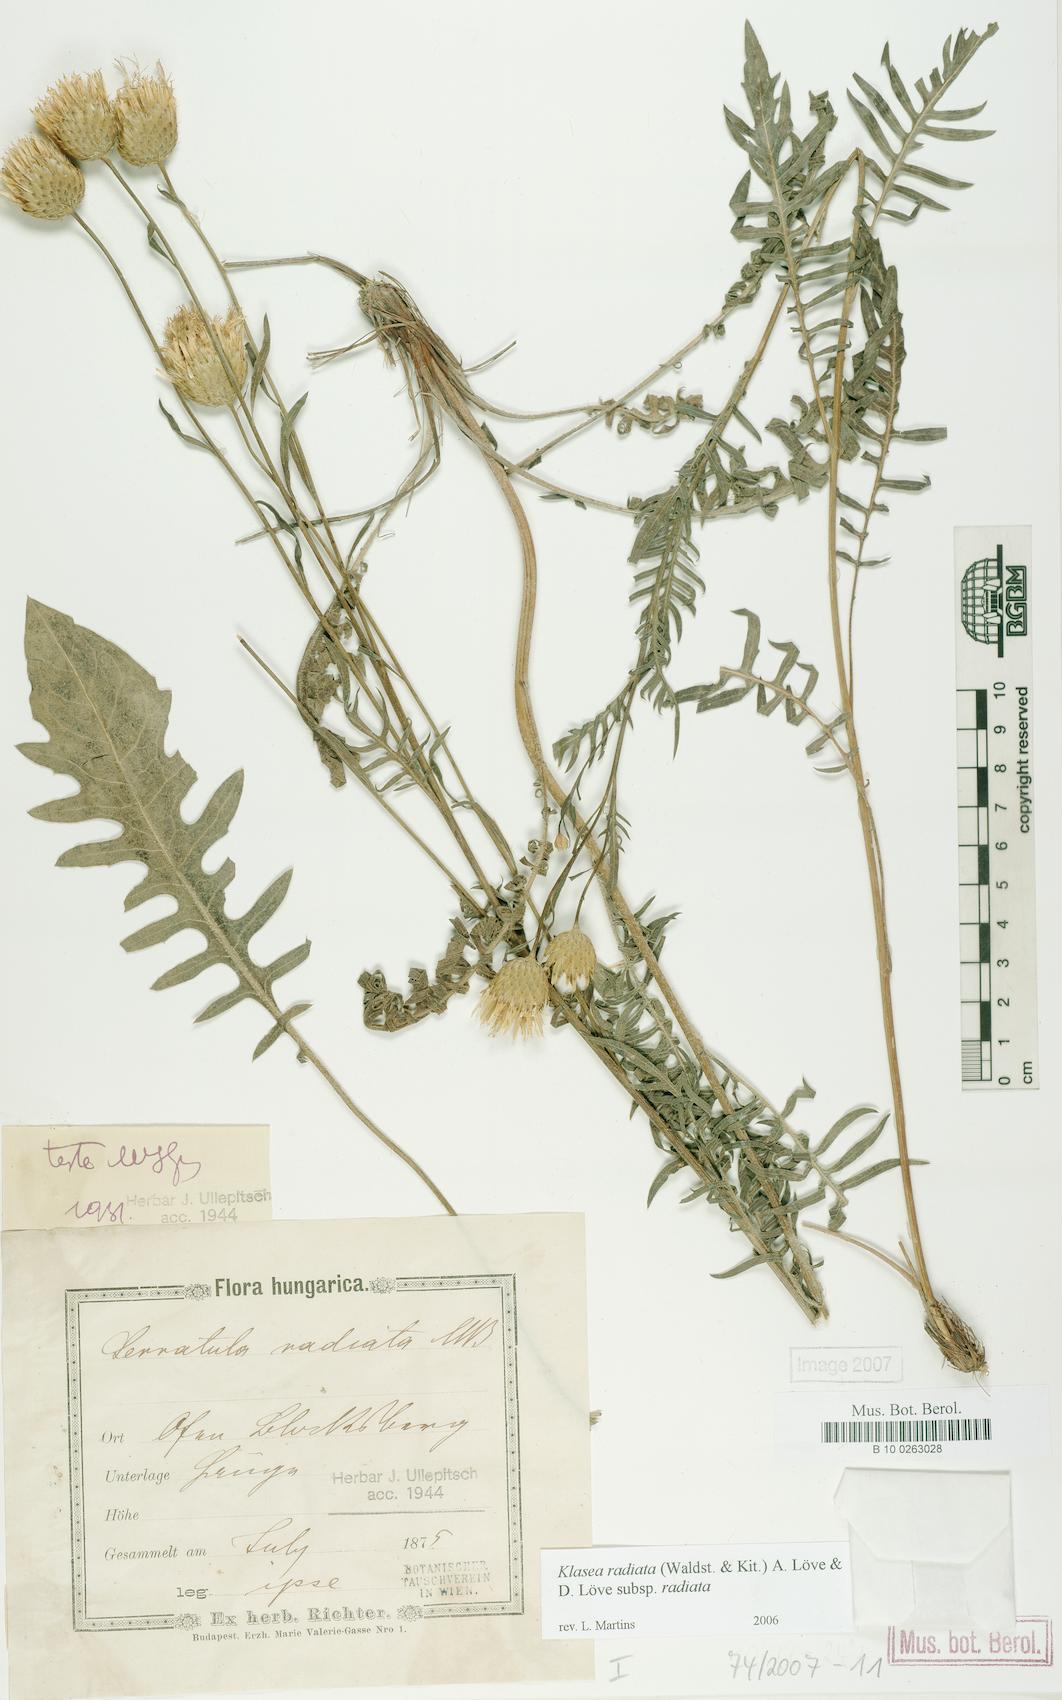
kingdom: Plantae
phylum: Tracheophyta
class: Magnoliopsida
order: Asterales
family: Asteraceae
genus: Klasea
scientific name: Klasea radiata
